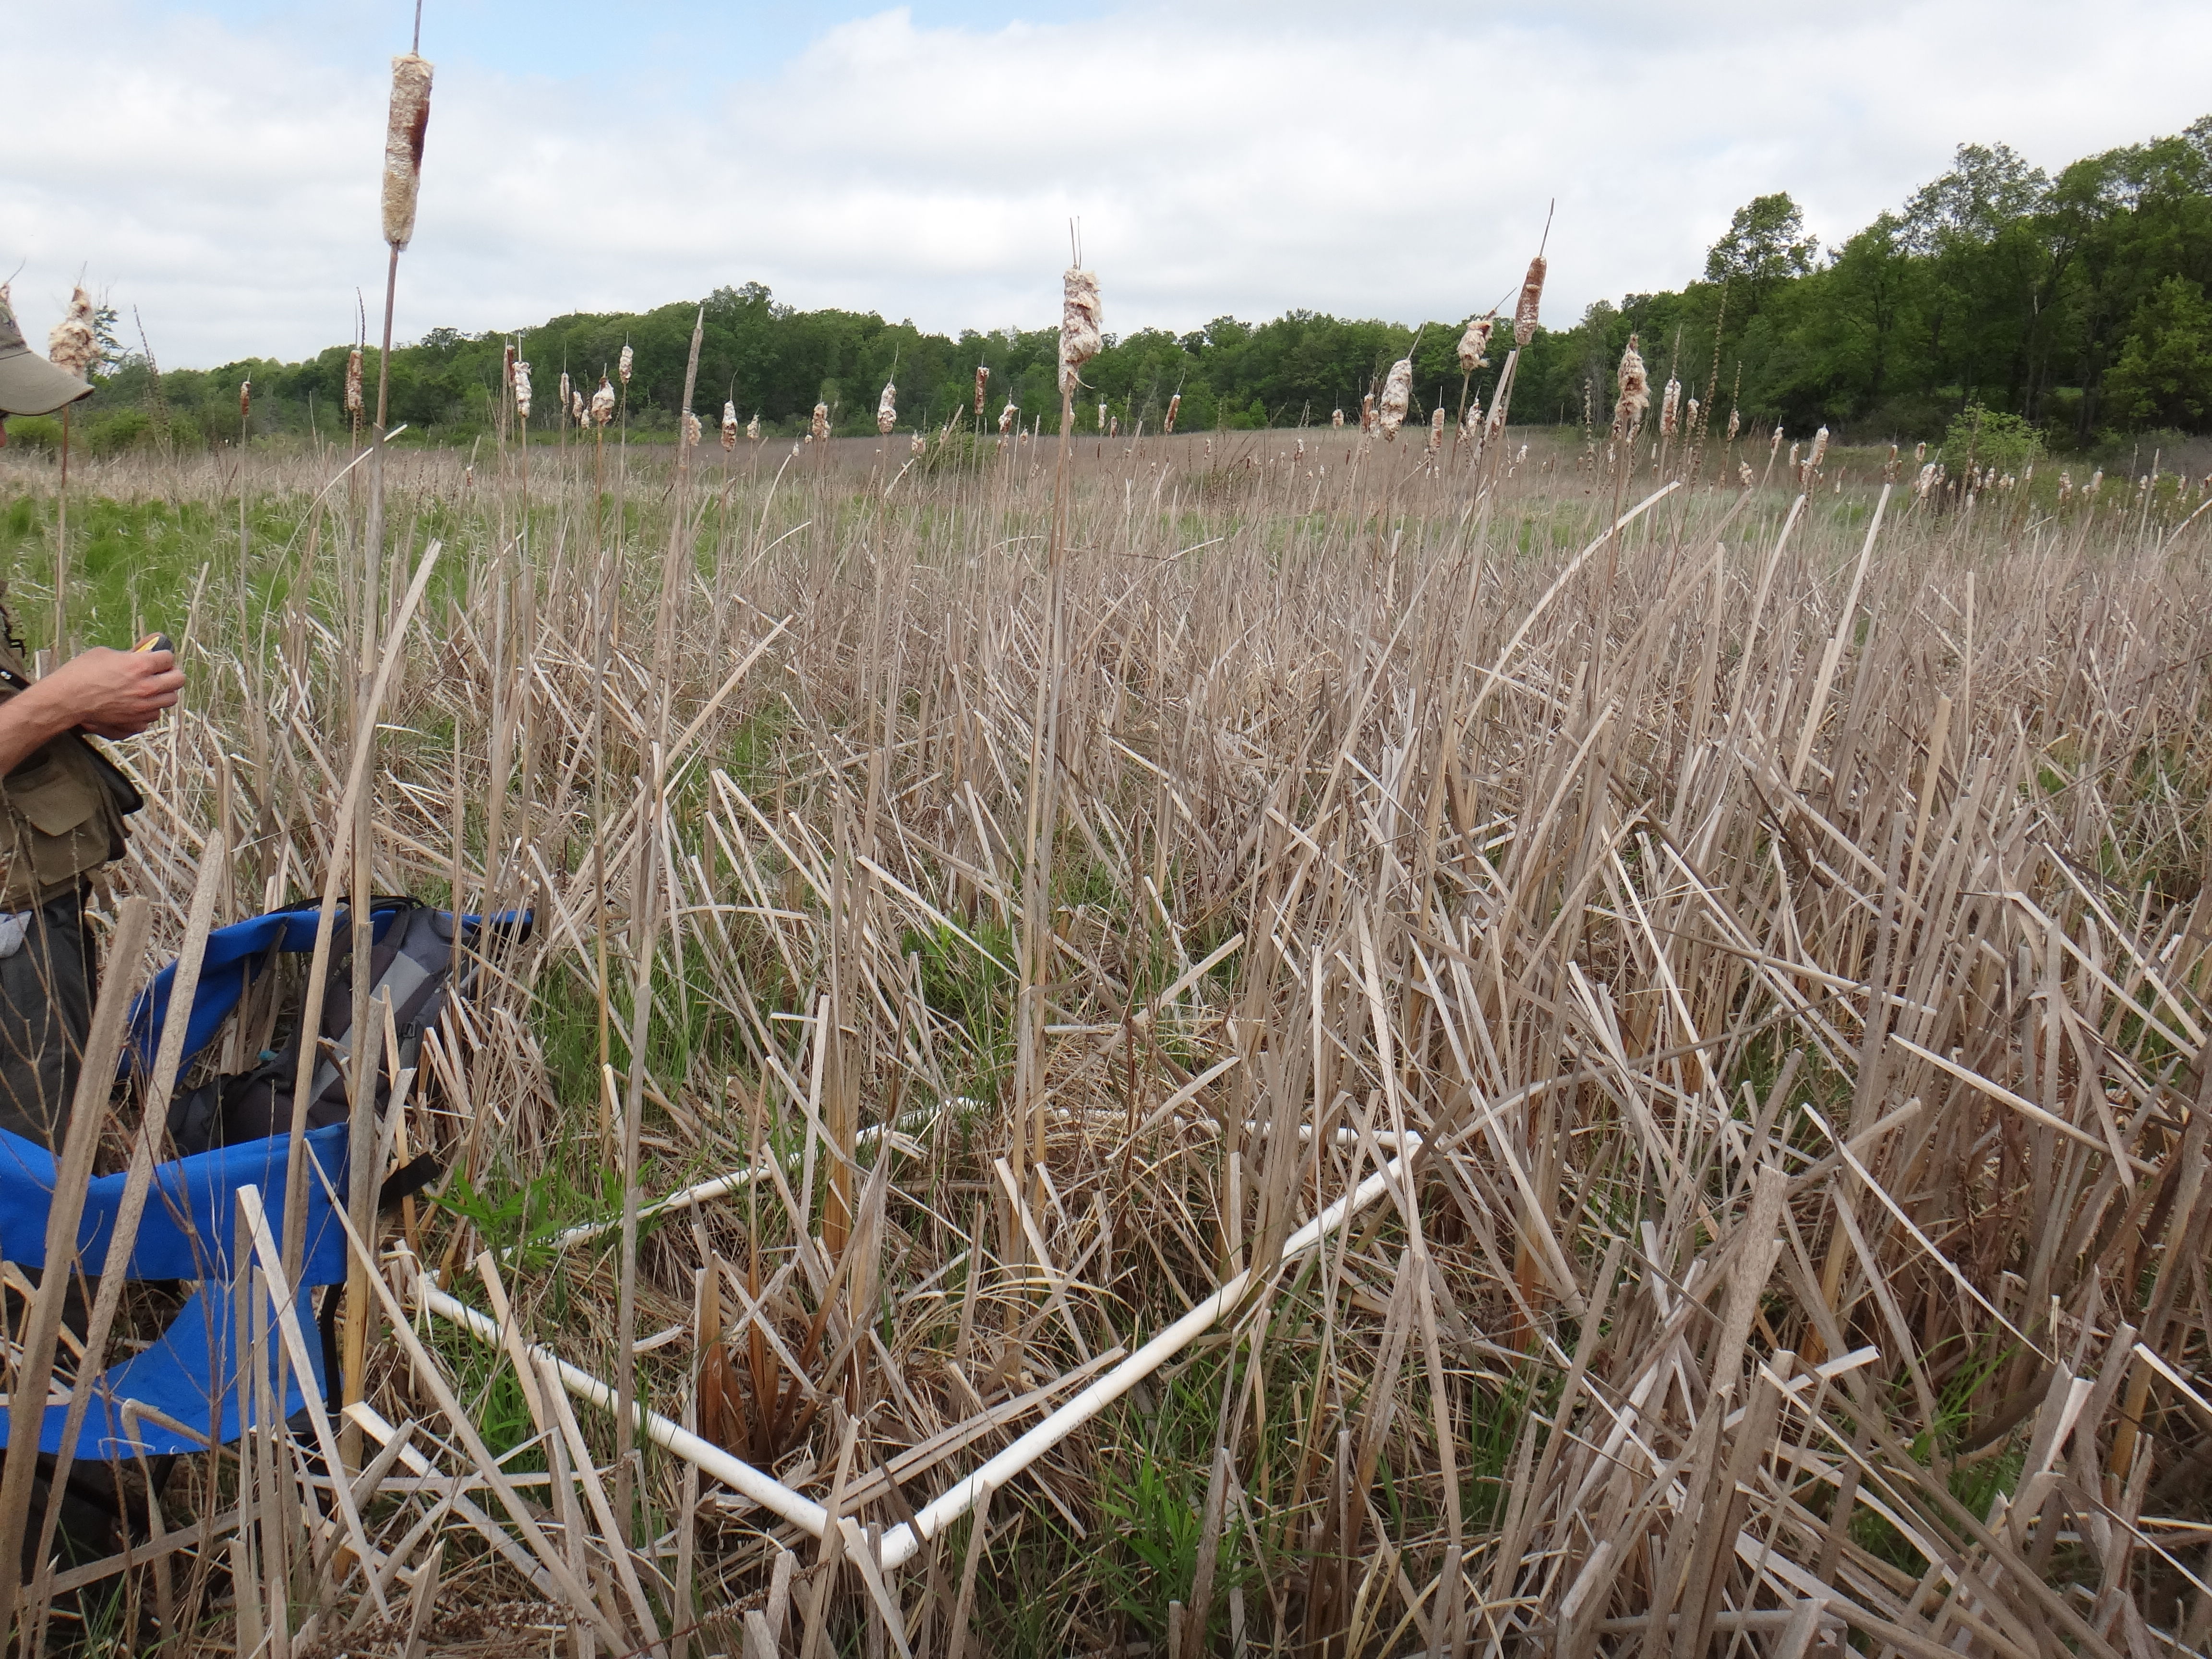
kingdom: Plantae
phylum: Tracheophyta
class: Magnoliopsida
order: Asterales
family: Asteraceae
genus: Solidago
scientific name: Solidago canadensis
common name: Canada goldenrod
